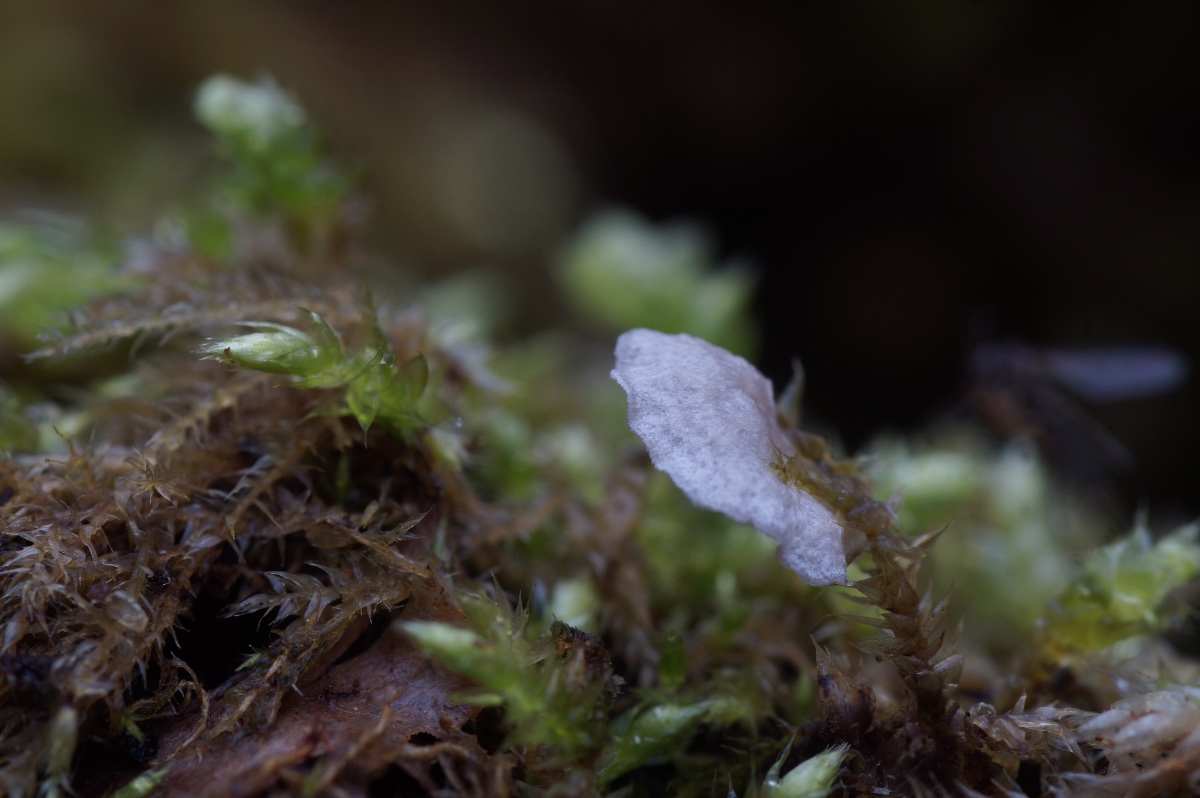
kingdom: Fungi
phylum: Basidiomycota
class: Agaricomycetes
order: Agaricales
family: Hygrophoraceae
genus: Arrhenia
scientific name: Arrhenia retiruga
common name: lille fontænehat
